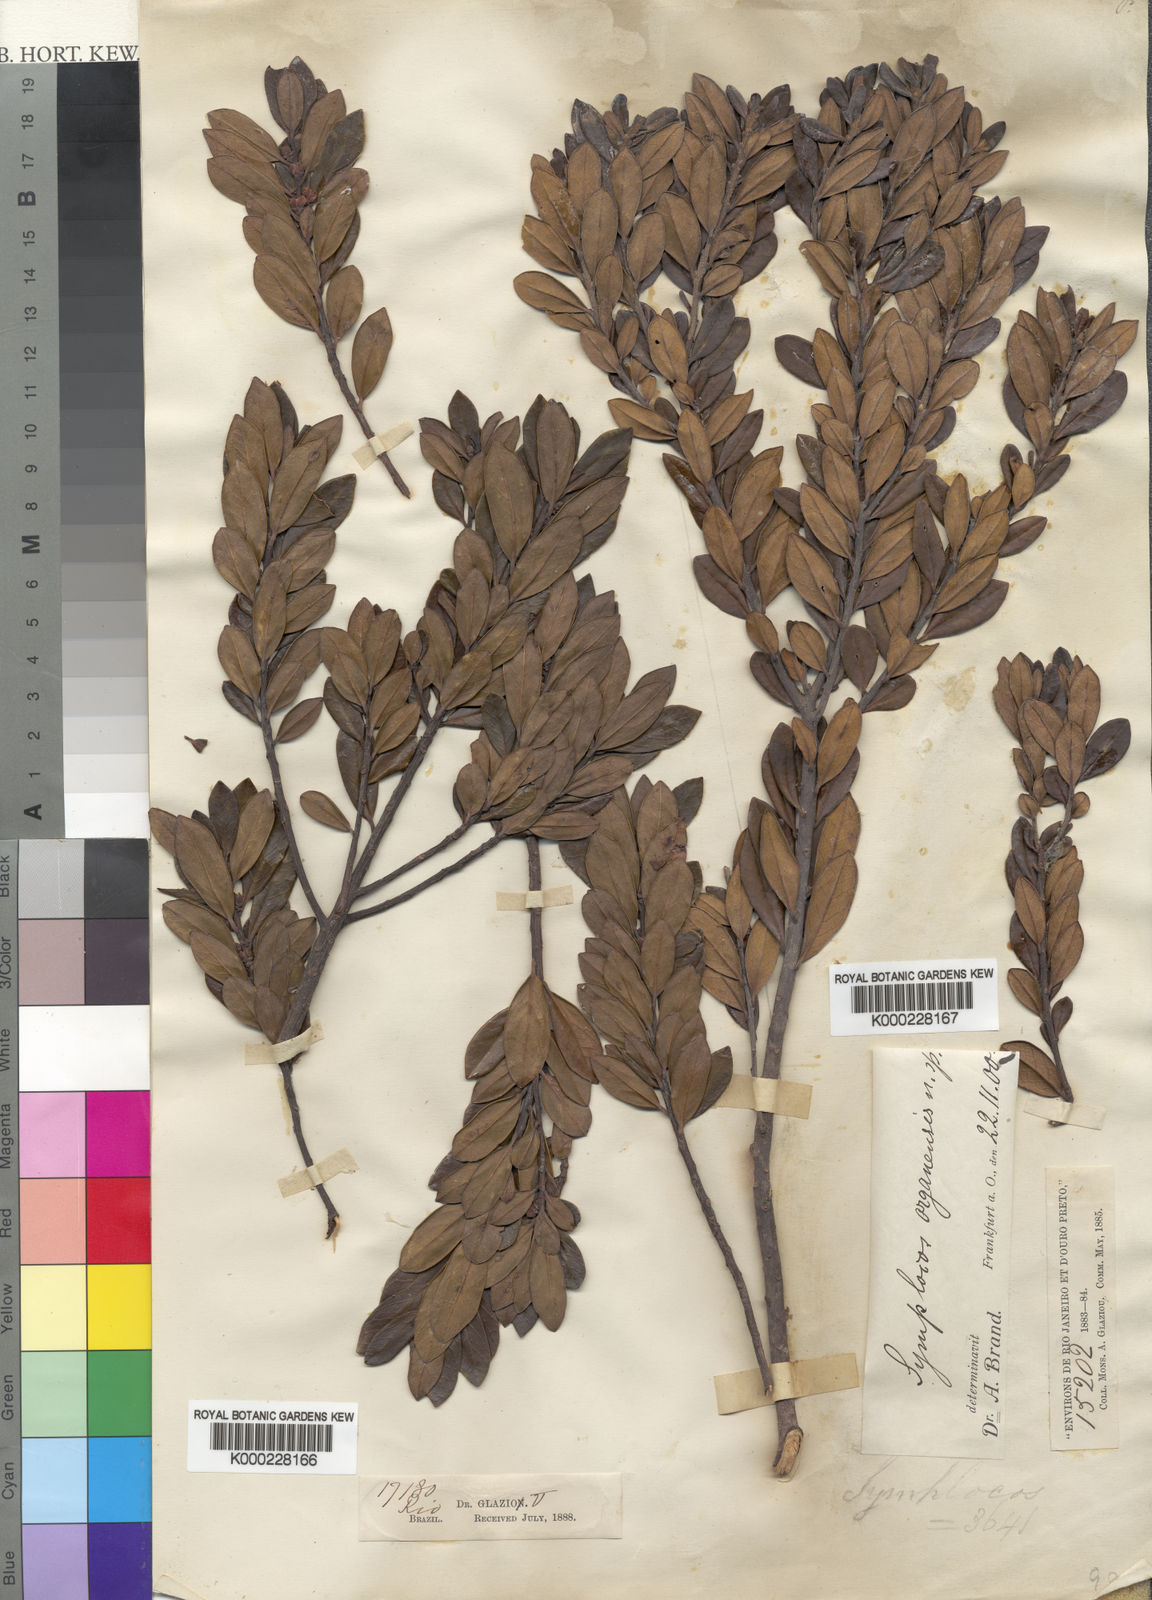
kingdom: Plantae
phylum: Tracheophyta
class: Magnoliopsida
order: Ericales
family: Symplocaceae
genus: Symplocos
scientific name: Symplocos organensis
